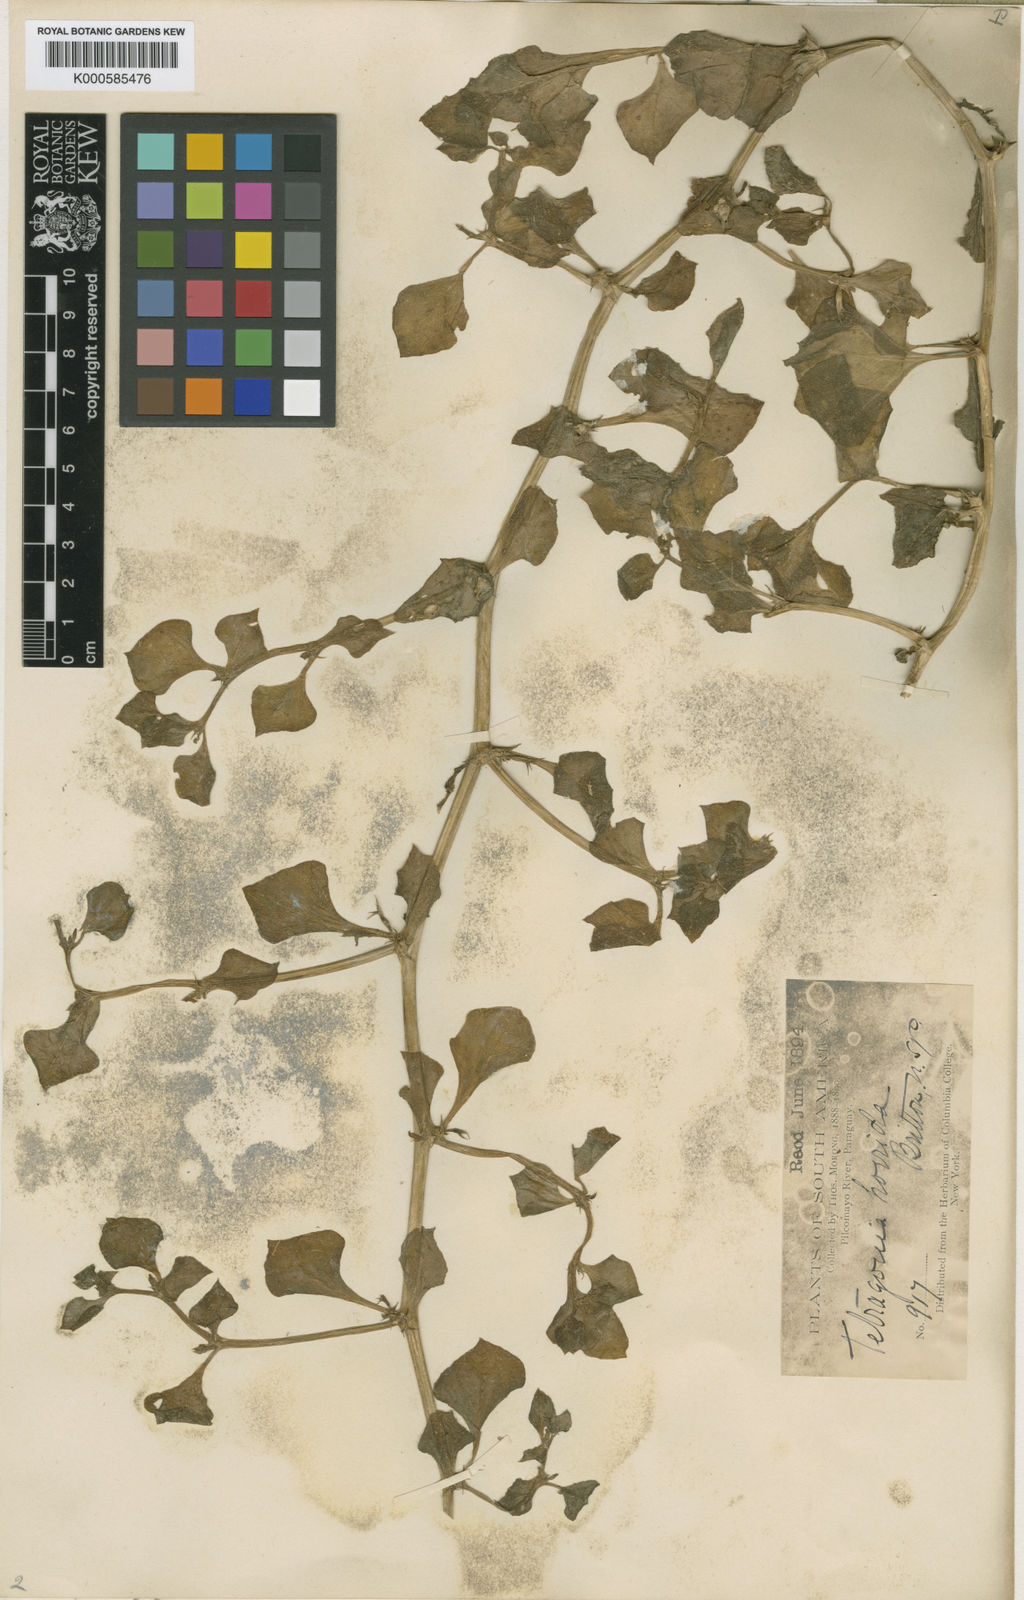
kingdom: Plantae
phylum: Tracheophyta
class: Magnoliopsida
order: Solanales
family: Solanaceae
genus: Sclerophylax
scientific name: Sclerophylax spinescens
